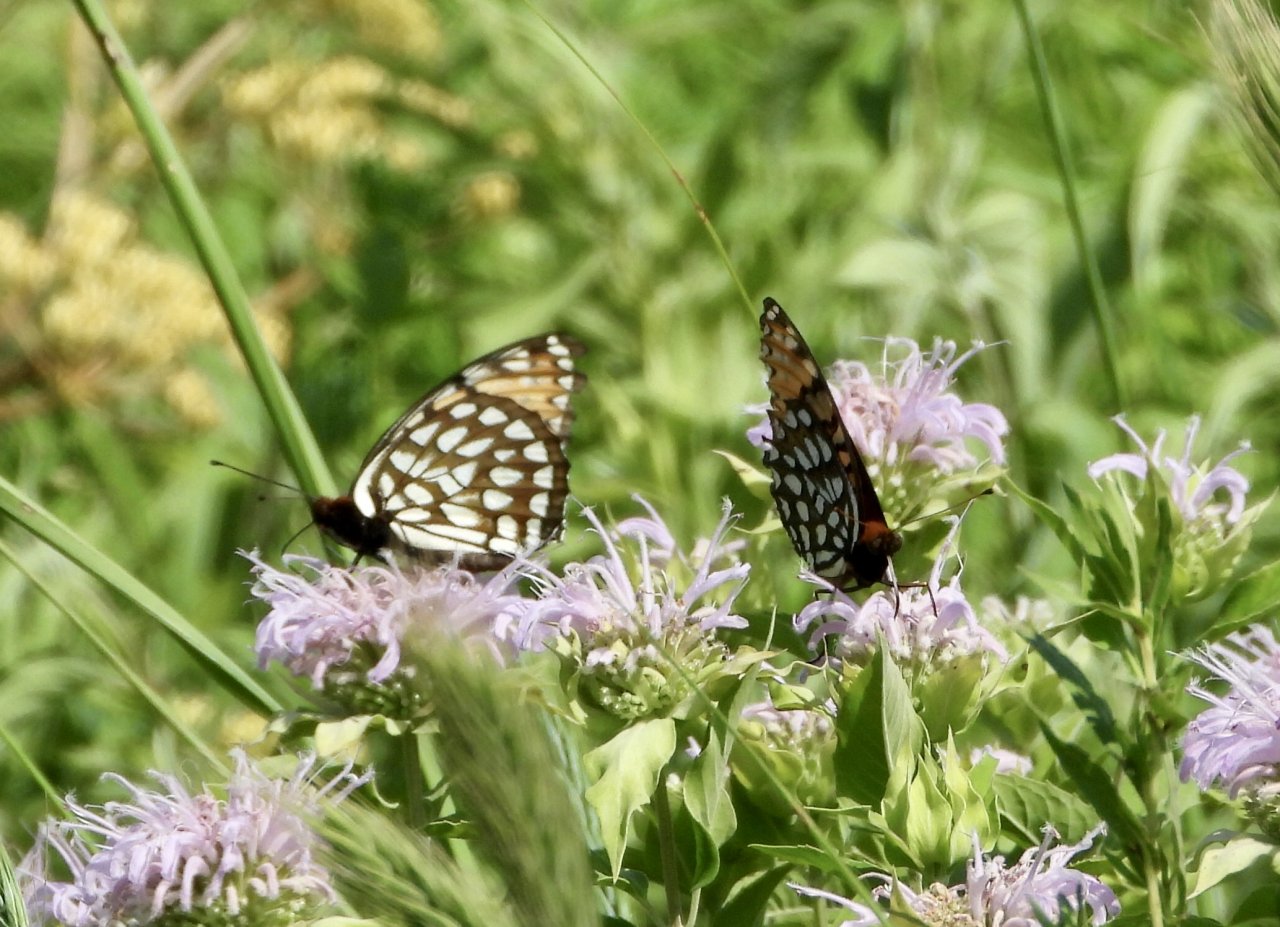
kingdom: Animalia
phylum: Arthropoda
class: Insecta
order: Lepidoptera
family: Nymphalidae
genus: Speyeria
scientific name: Speyeria idalia
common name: Regal Fritillary
